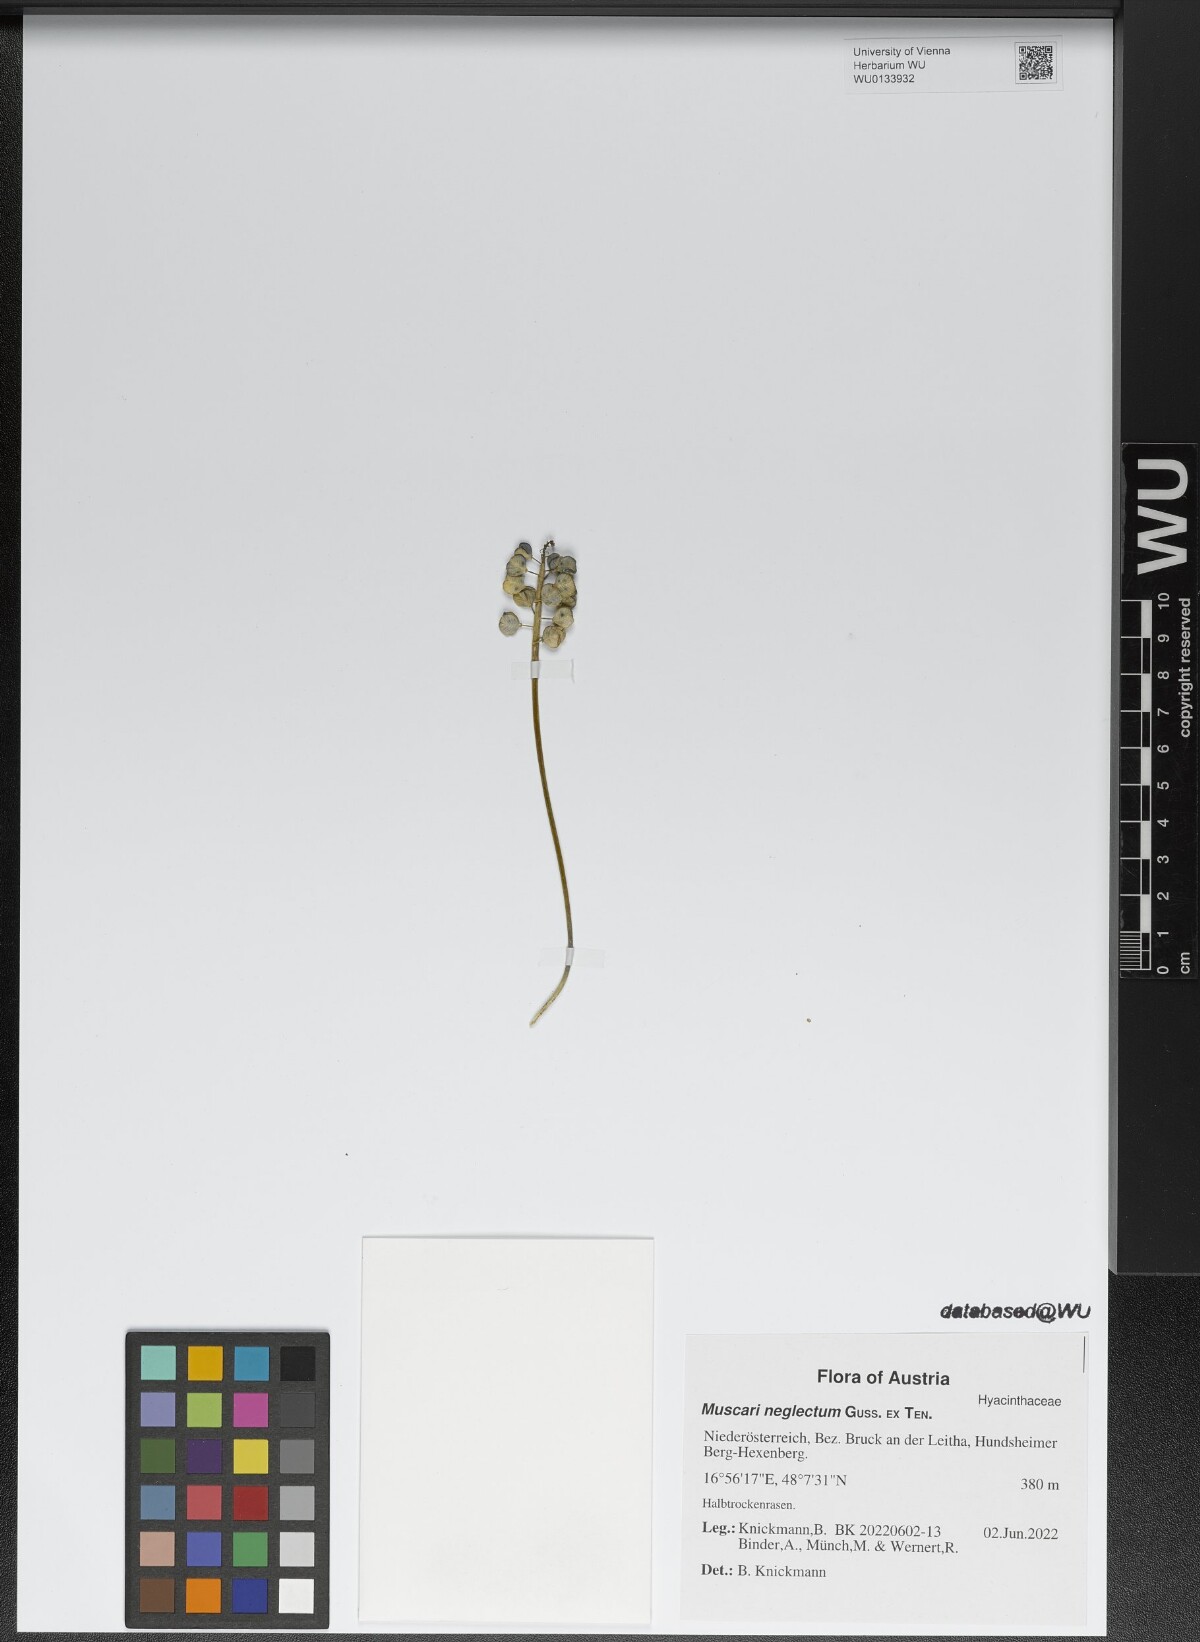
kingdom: Plantae
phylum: Tracheophyta
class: Liliopsida
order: Asparagales
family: Asparagaceae
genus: Muscari
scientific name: Muscari neglectum
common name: Grape-hyacinth
